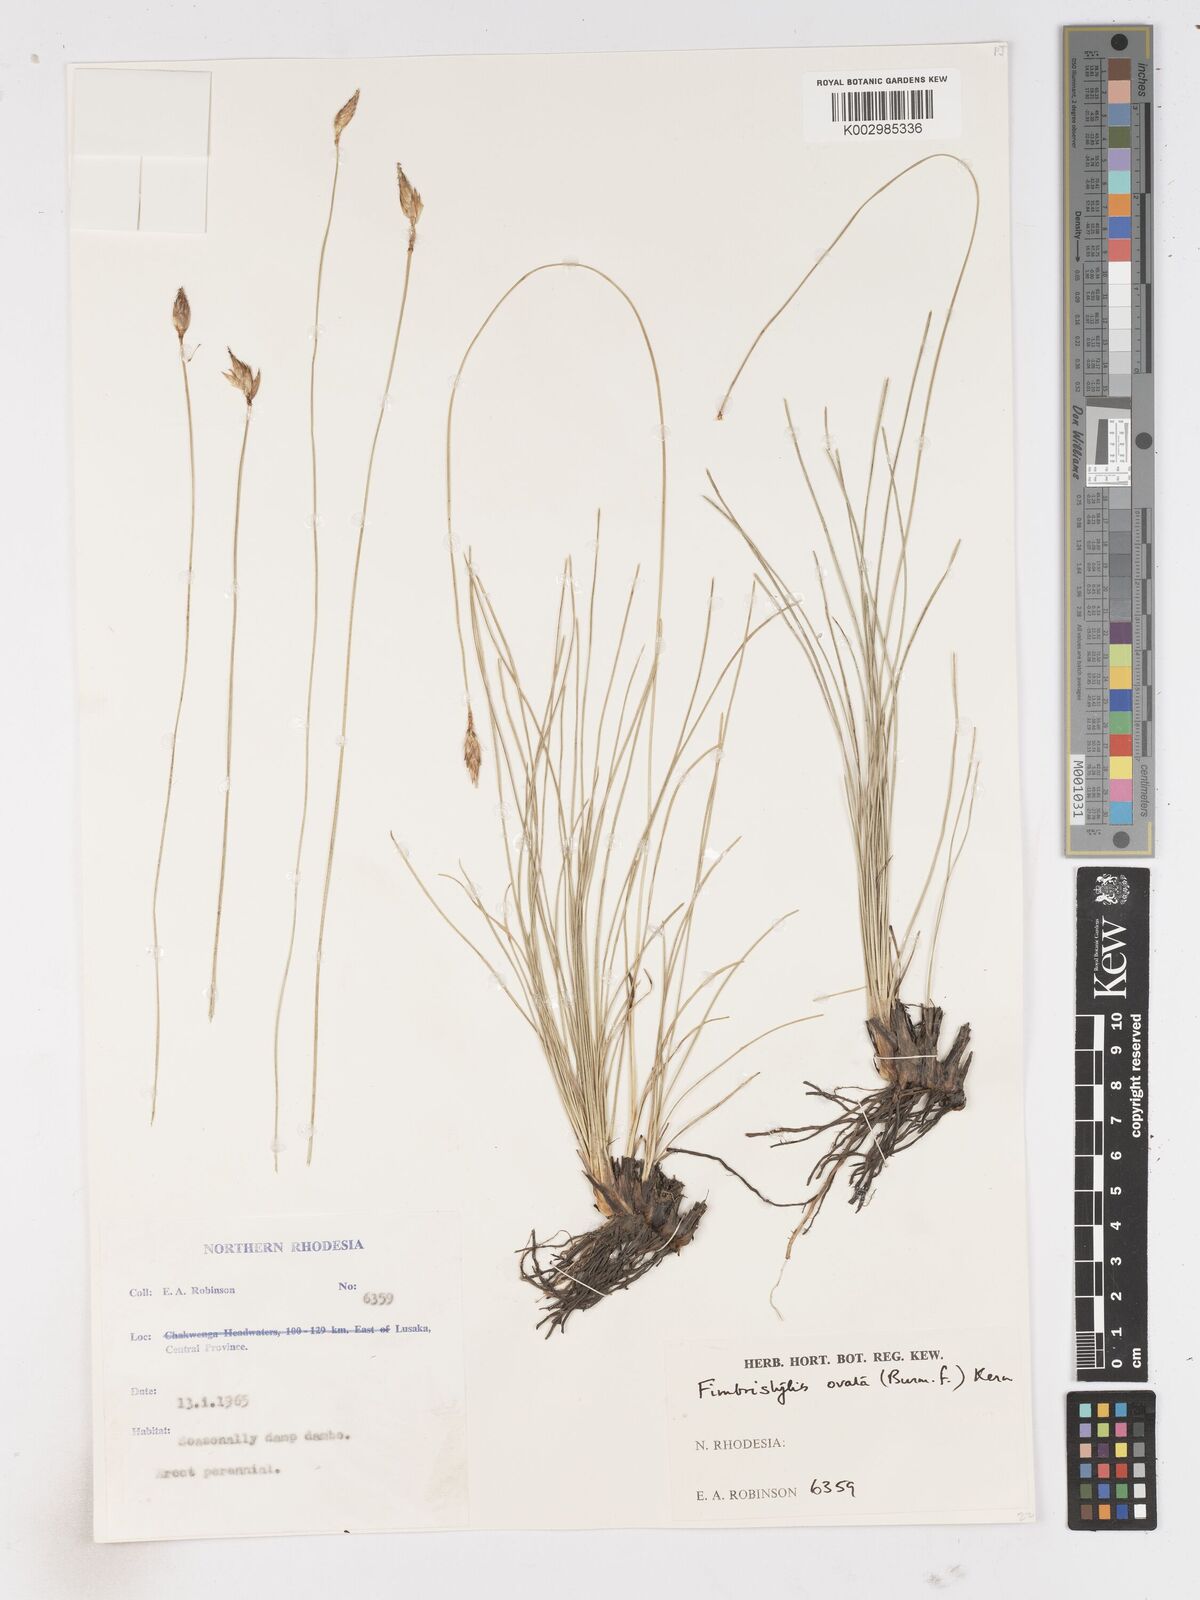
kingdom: Plantae
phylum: Tracheophyta
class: Liliopsida
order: Poales
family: Cyperaceae
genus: Abildgaardia
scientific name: Abildgaardia ovata
